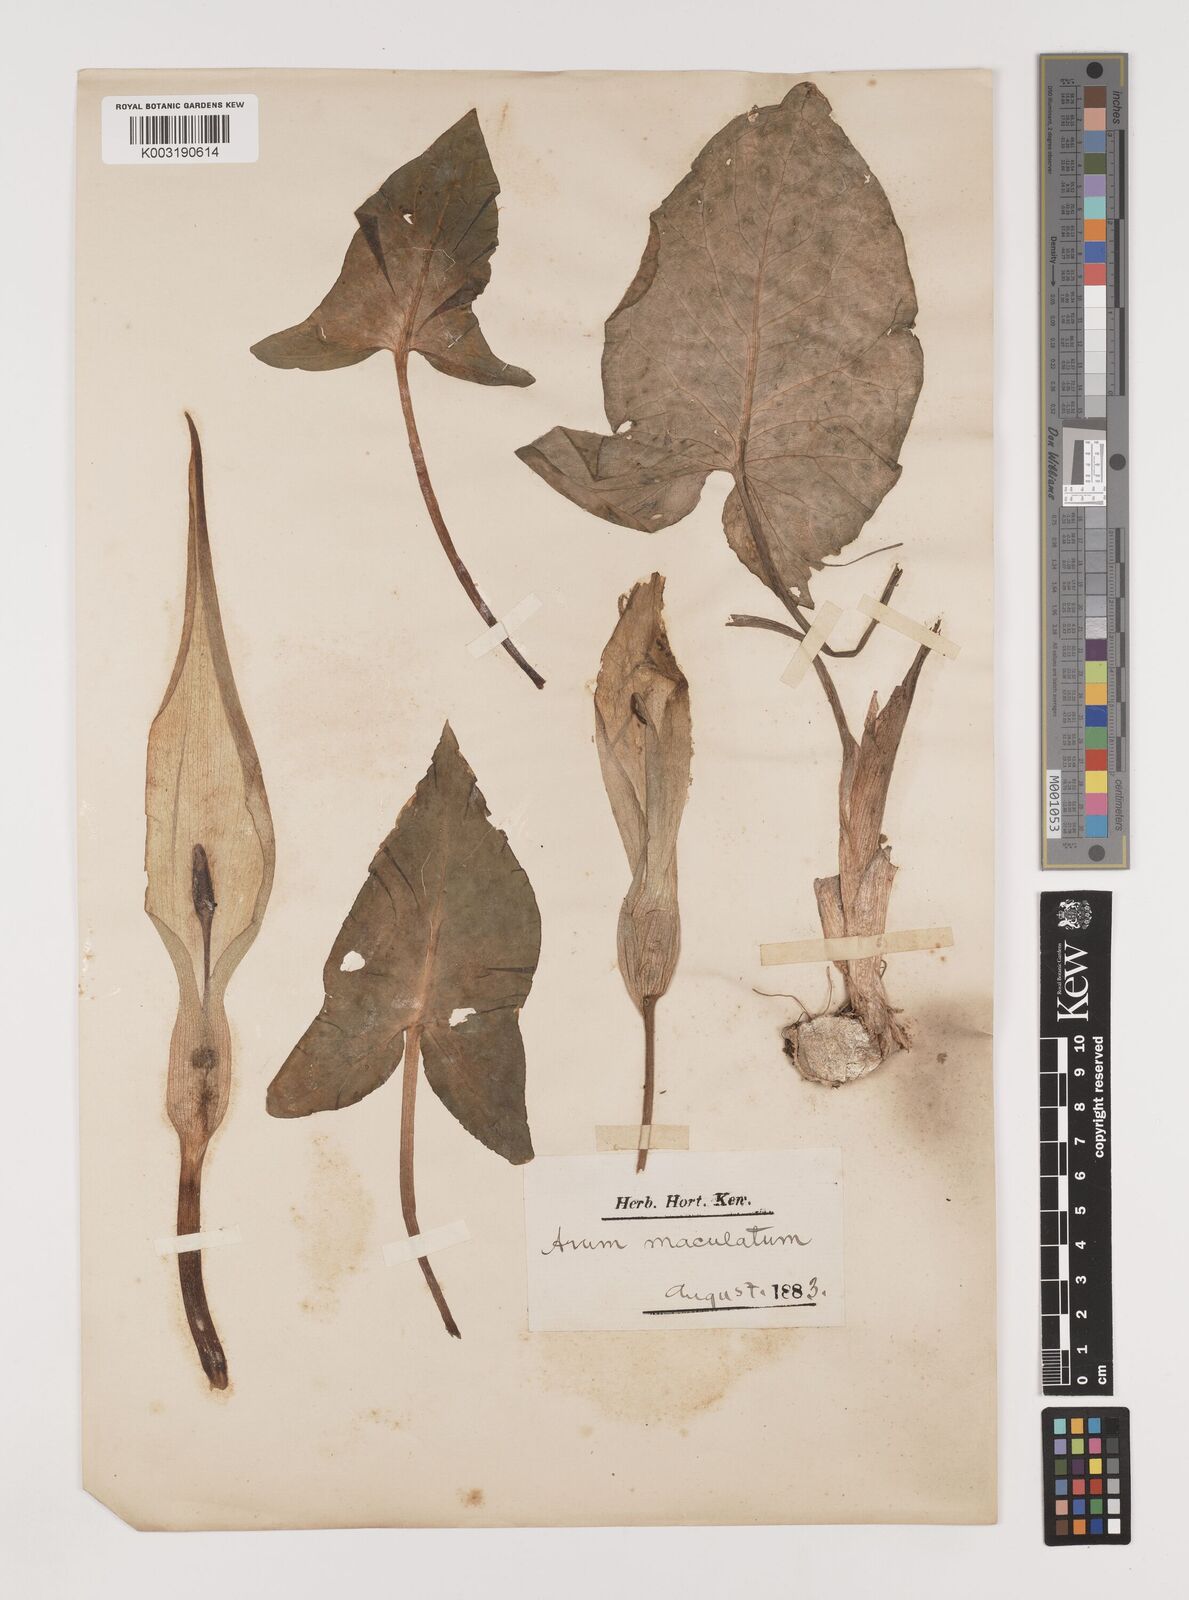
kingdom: Plantae
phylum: Tracheophyta
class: Liliopsida
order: Alismatales
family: Araceae
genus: Arum
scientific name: Arum maculatum
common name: Lords-and-ladies
